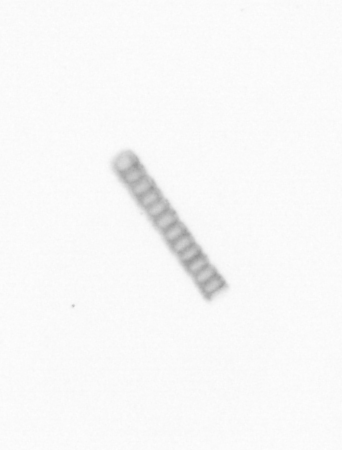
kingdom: Chromista
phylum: Ochrophyta
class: Bacillariophyceae
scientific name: Bacillariophyceae
